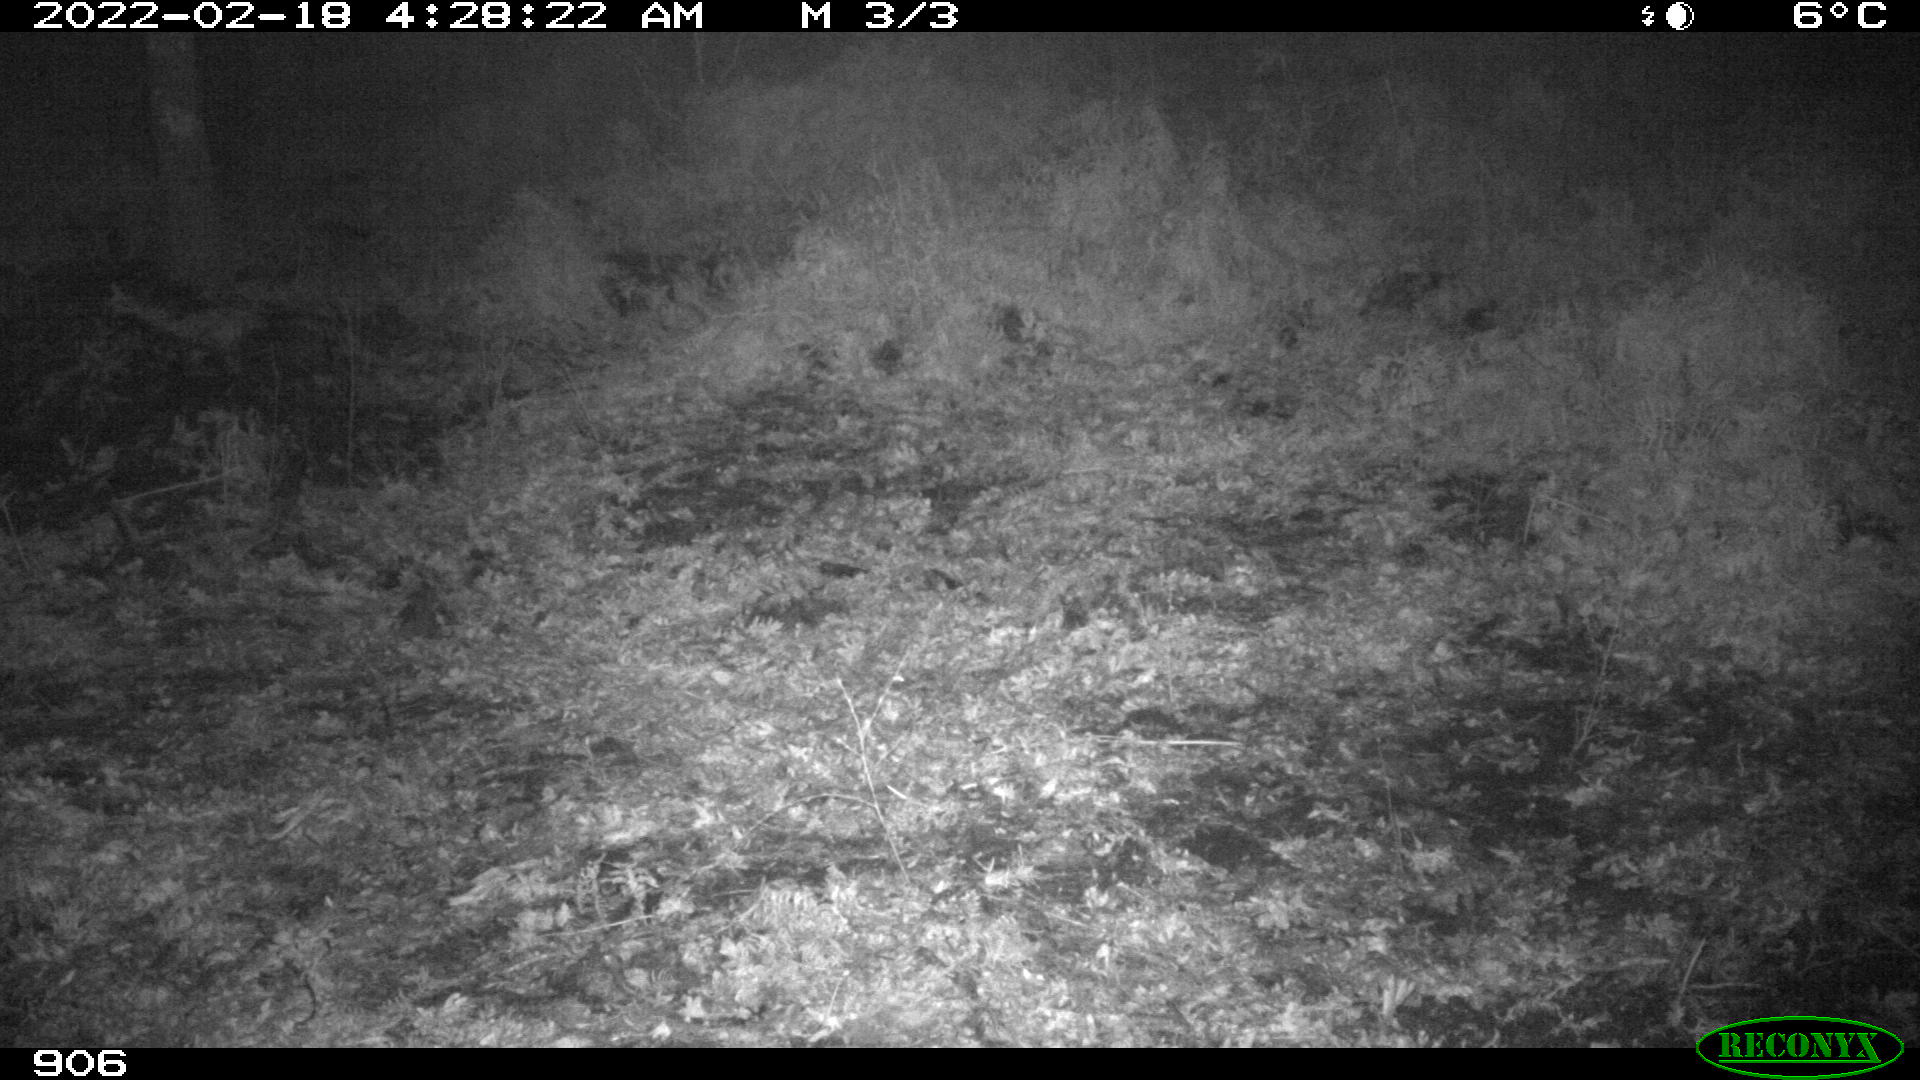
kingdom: Animalia
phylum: Chordata
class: Mammalia
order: Artiodactyla
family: Suidae
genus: Sus
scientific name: Sus scrofa
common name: Wild boar
